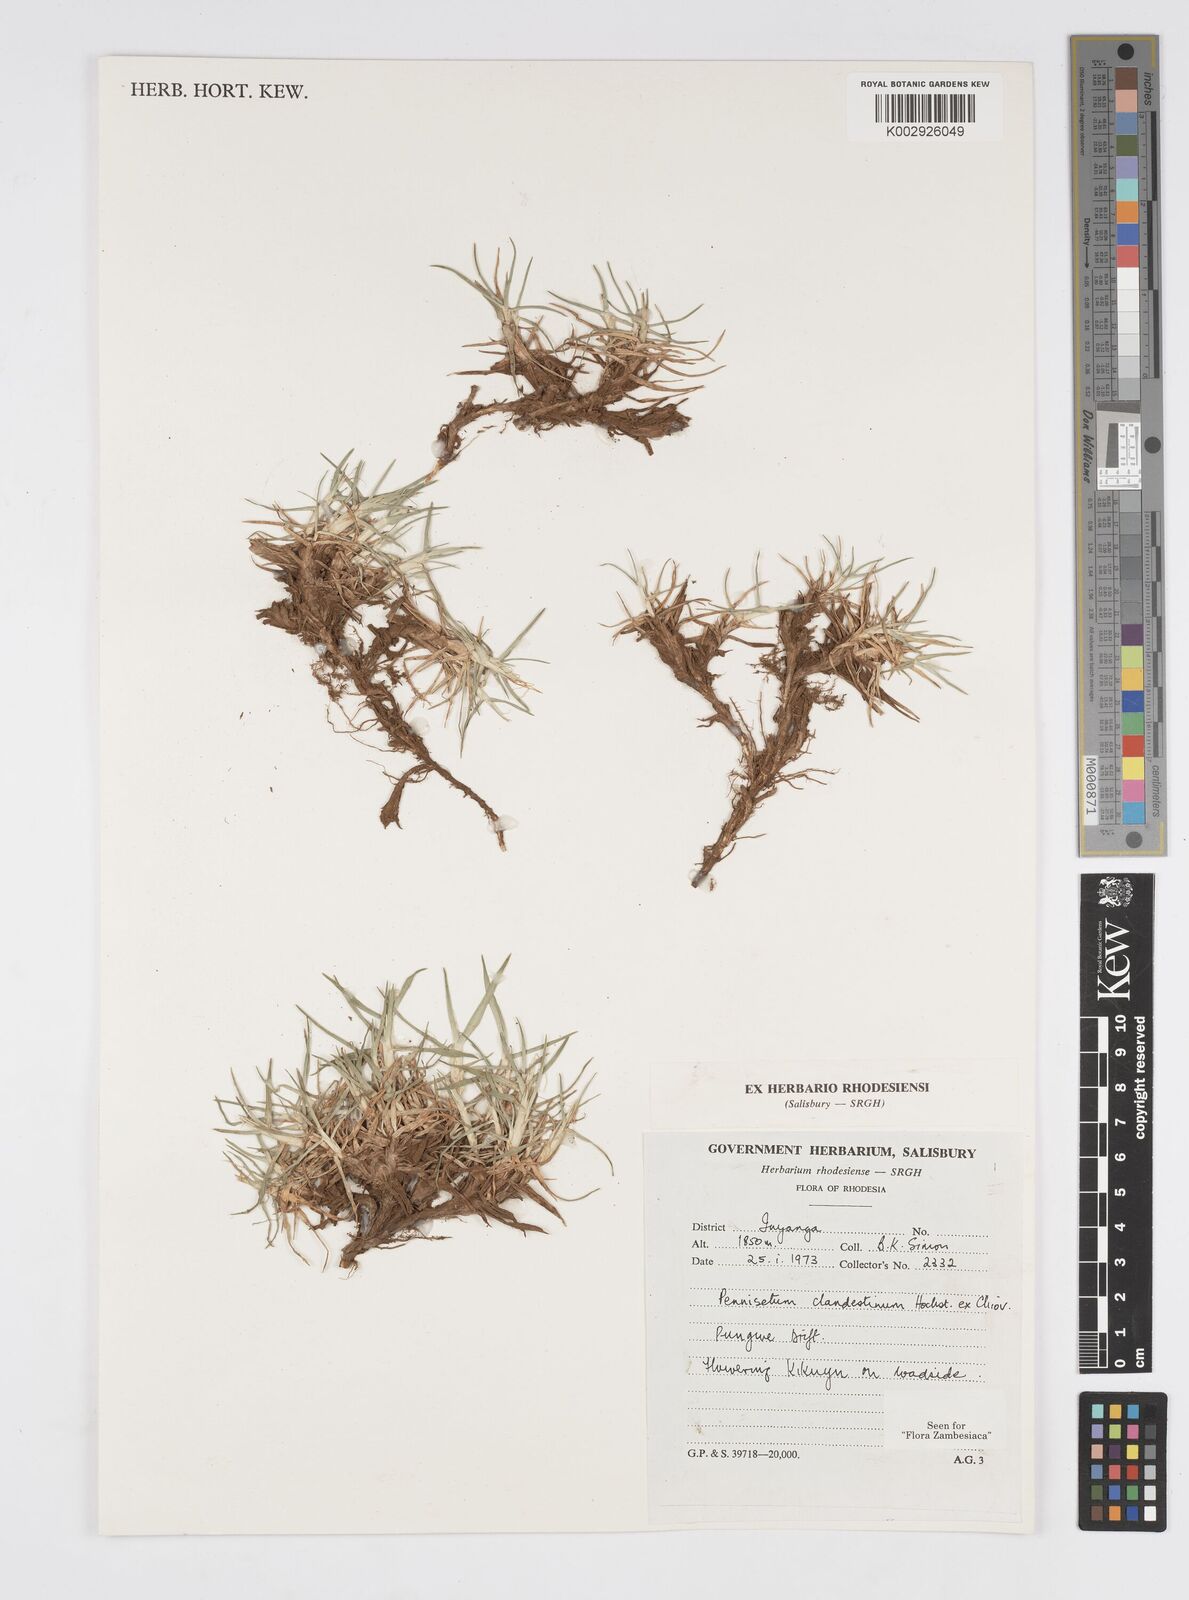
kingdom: Plantae
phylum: Tracheophyta
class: Liliopsida
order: Poales
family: Poaceae
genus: Cenchrus
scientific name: Cenchrus clandestinus
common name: Kikuyugrass
